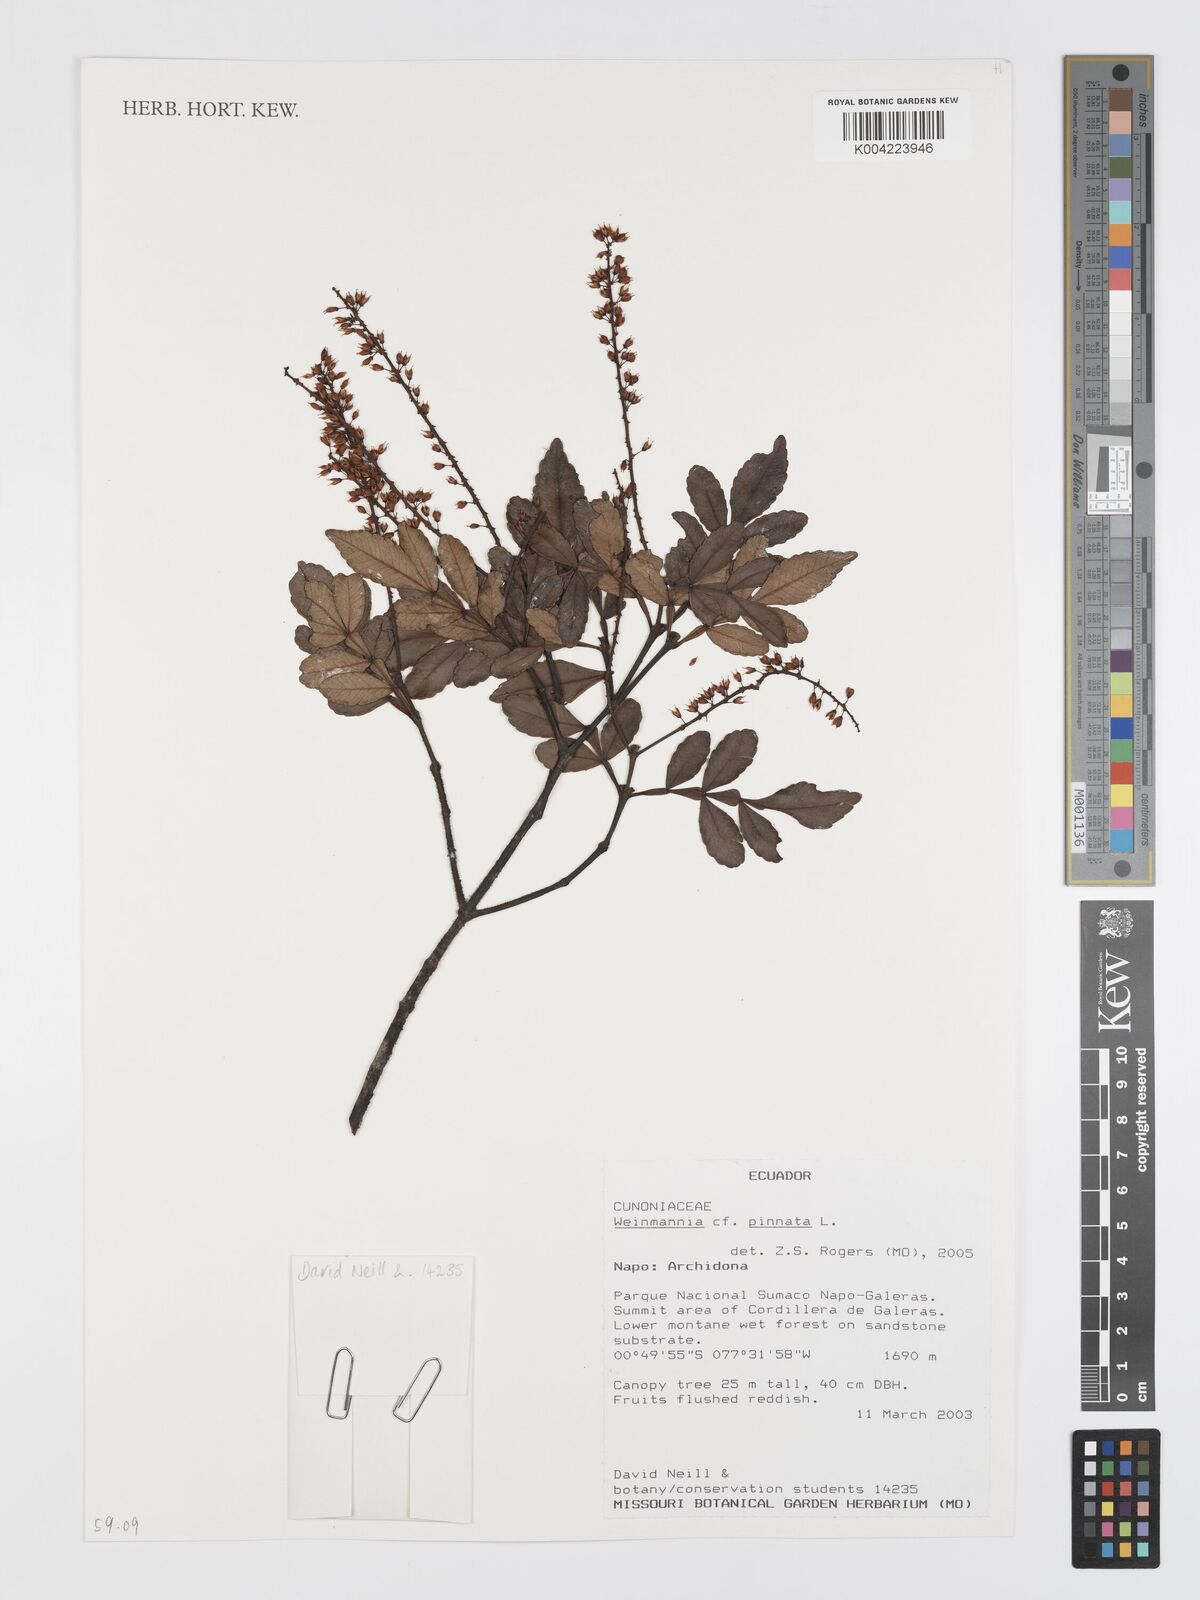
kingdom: Plantae
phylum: Tracheophyta
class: Magnoliopsida
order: Oxalidales
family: Cunoniaceae
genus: Weinmannia
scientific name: Weinmannia pinnata
